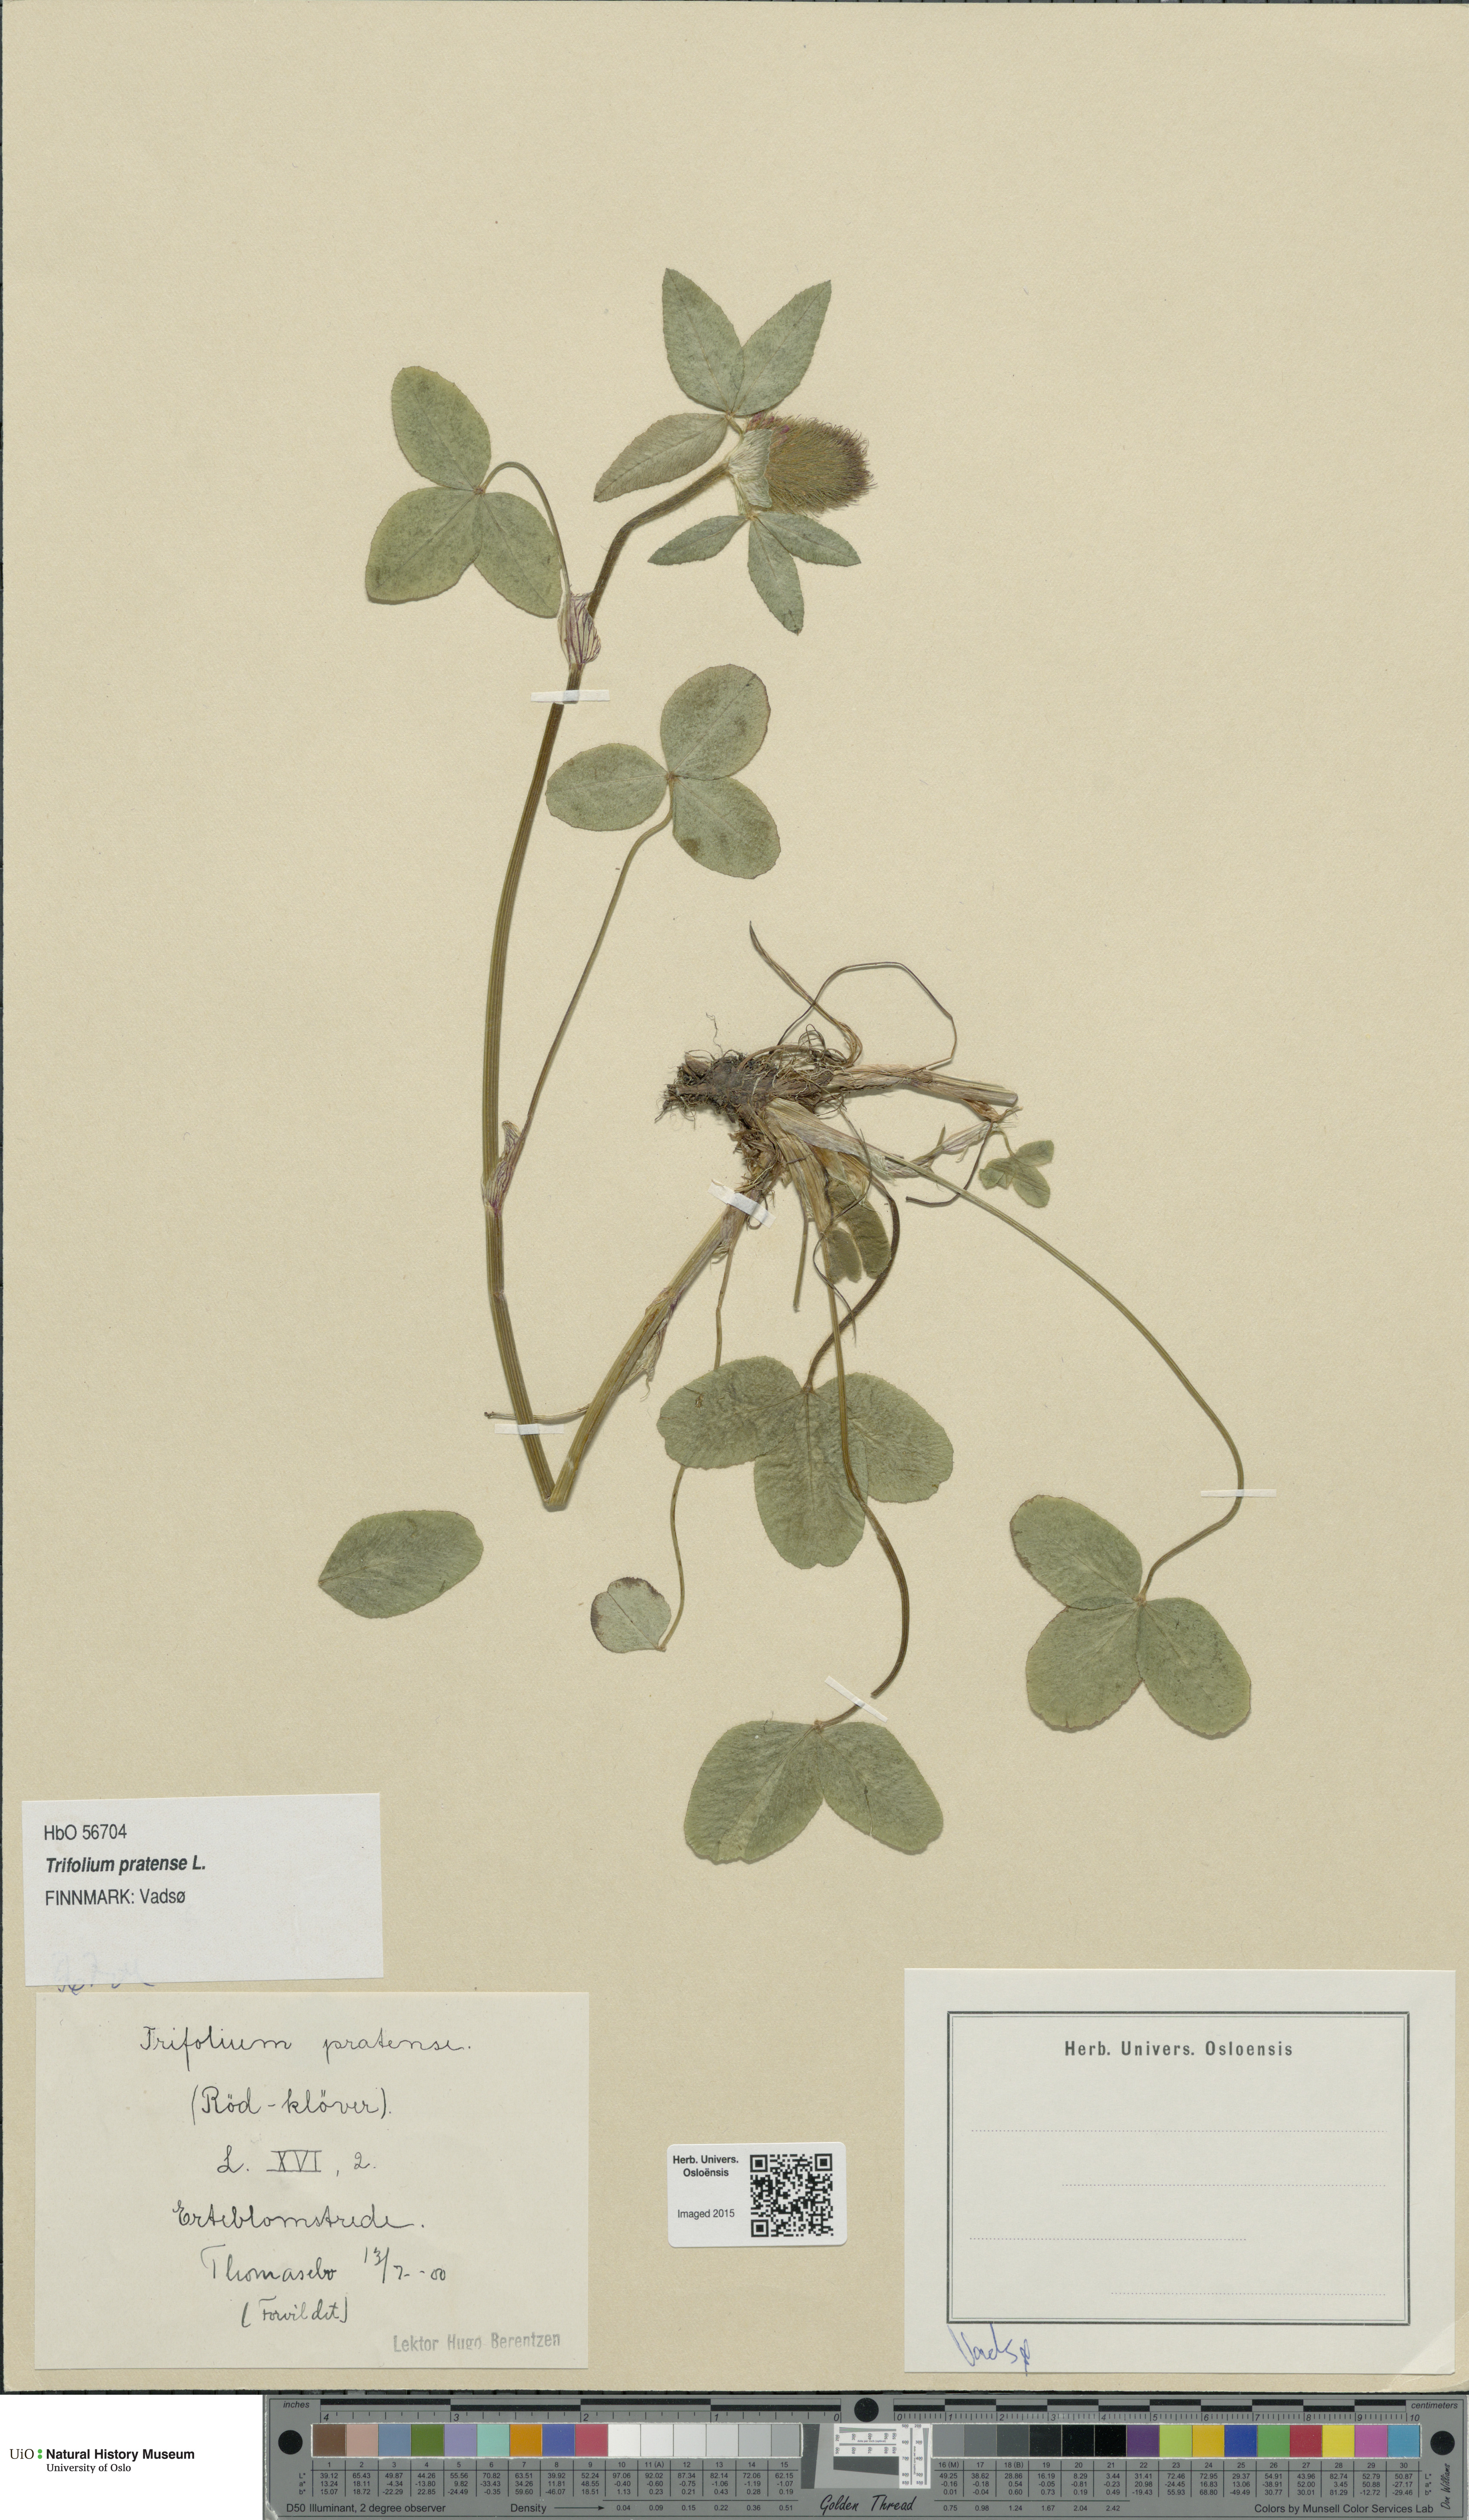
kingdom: Plantae
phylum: Tracheophyta
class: Magnoliopsida
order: Fabales
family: Fabaceae
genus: Trifolium
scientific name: Trifolium pratense
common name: Red clover
